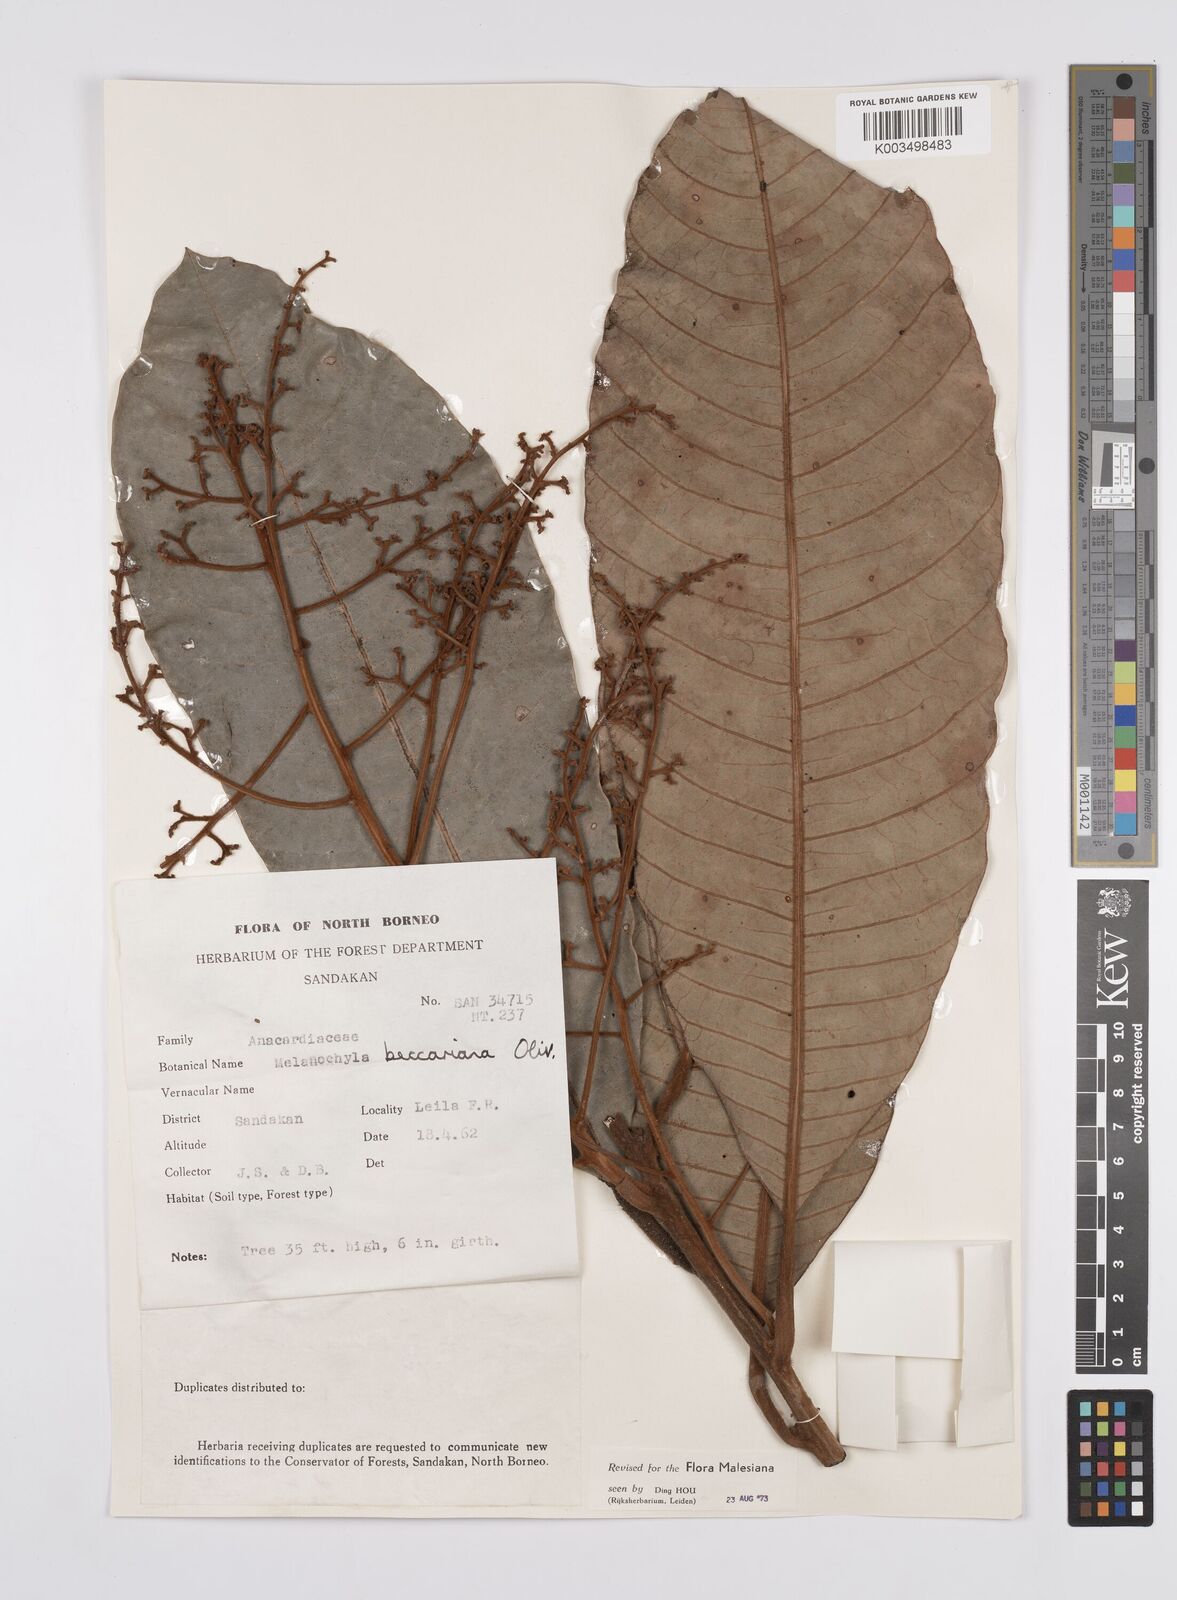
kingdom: Plantae
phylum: Tracheophyta
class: Magnoliopsida
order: Sapindales
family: Anacardiaceae
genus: Melanochyla
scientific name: Melanochyla beccariana
